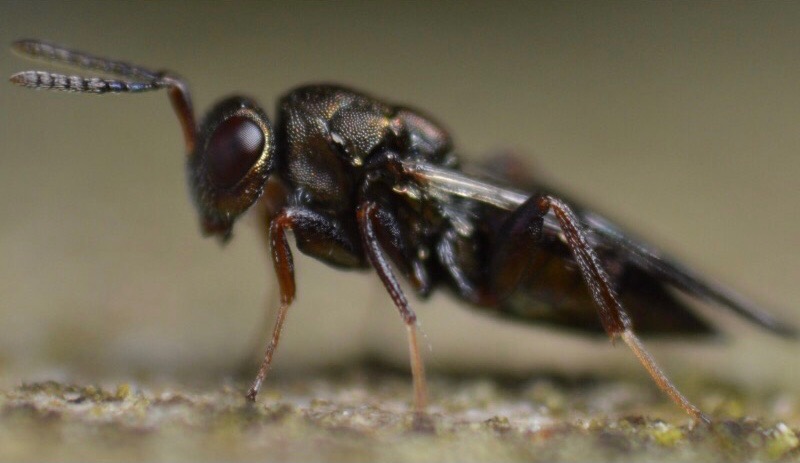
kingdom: Animalia
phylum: Arthropoda
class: Insecta
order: Hymenoptera
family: Pteromalidae
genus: Cheiropachus
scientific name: Cheiropachus quadrum
